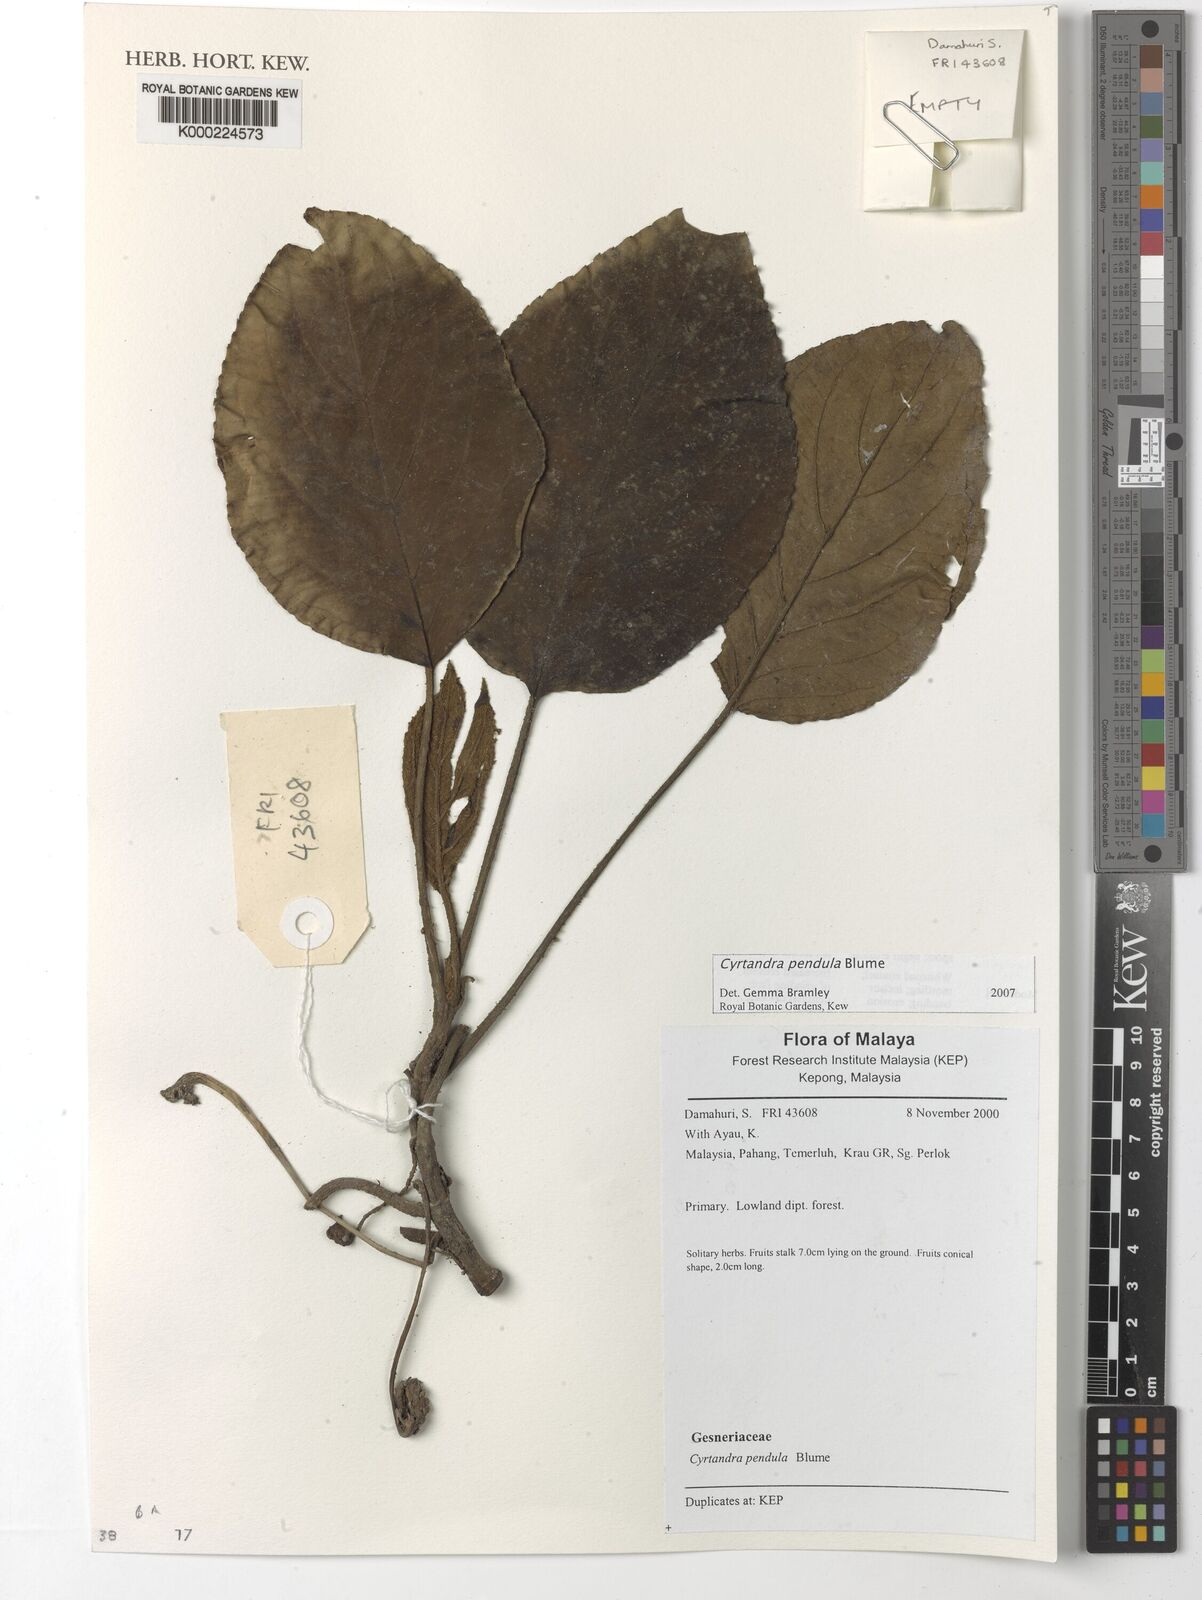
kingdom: Plantae
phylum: Tracheophyta
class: Magnoliopsida
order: Lamiales
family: Gesneriaceae
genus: Cyrtandra
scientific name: Cyrtandra
